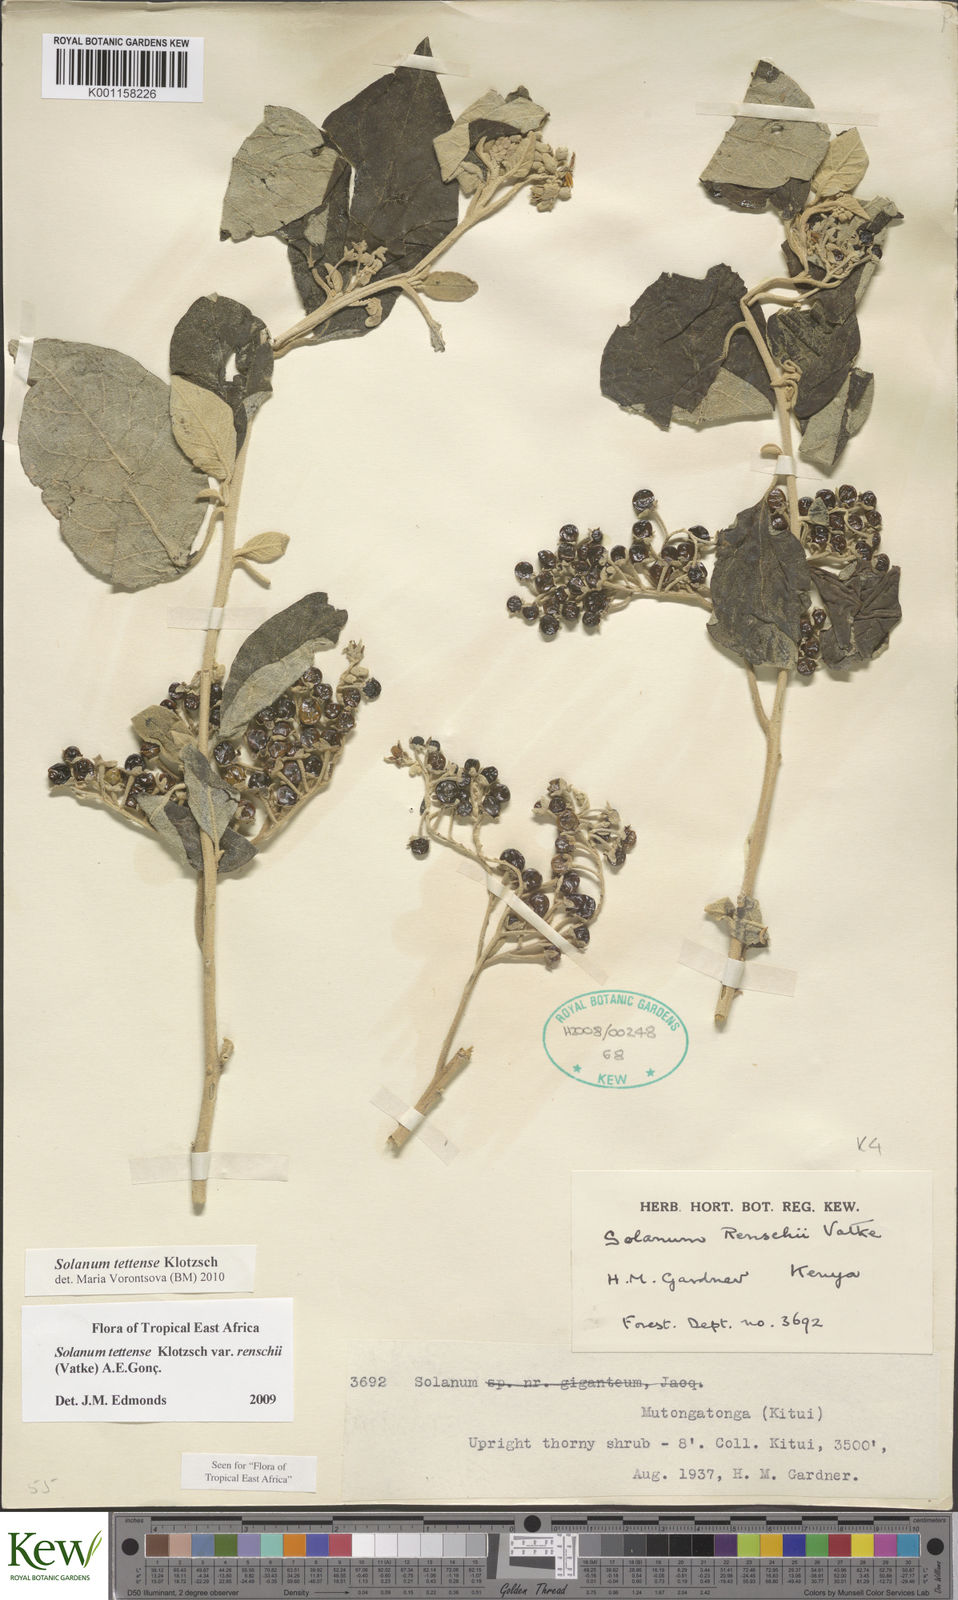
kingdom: Plantae
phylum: Tracheophyta
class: Magnoliopsida
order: Solanales
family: Solanaceae
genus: Solanum
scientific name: Solanum tettense
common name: Mozambique bitter apple
